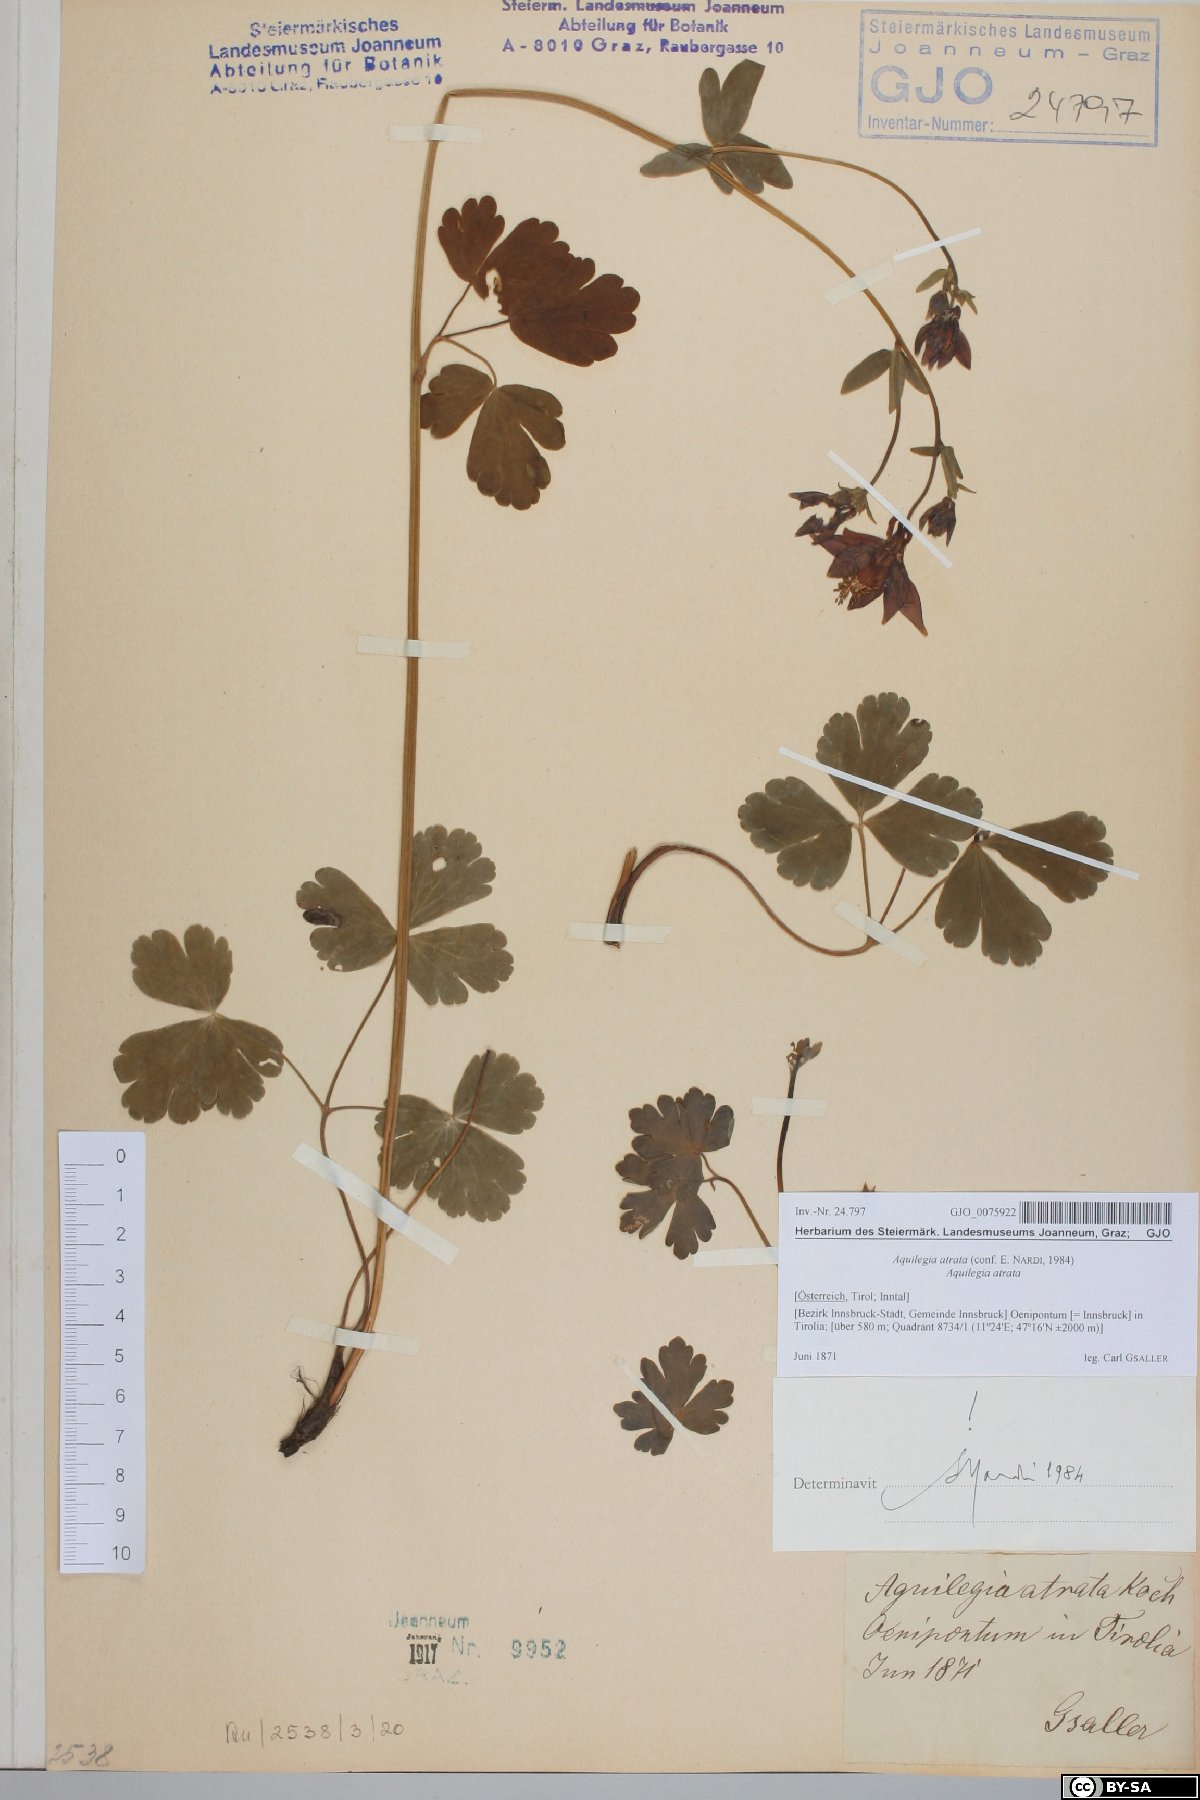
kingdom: Plantae
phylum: Tracheophyta
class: Magnoliopsida
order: Ranunculales
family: Ranunculaceae
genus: Aquilegia
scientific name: Aquilegia atrata
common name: Dark columbine
